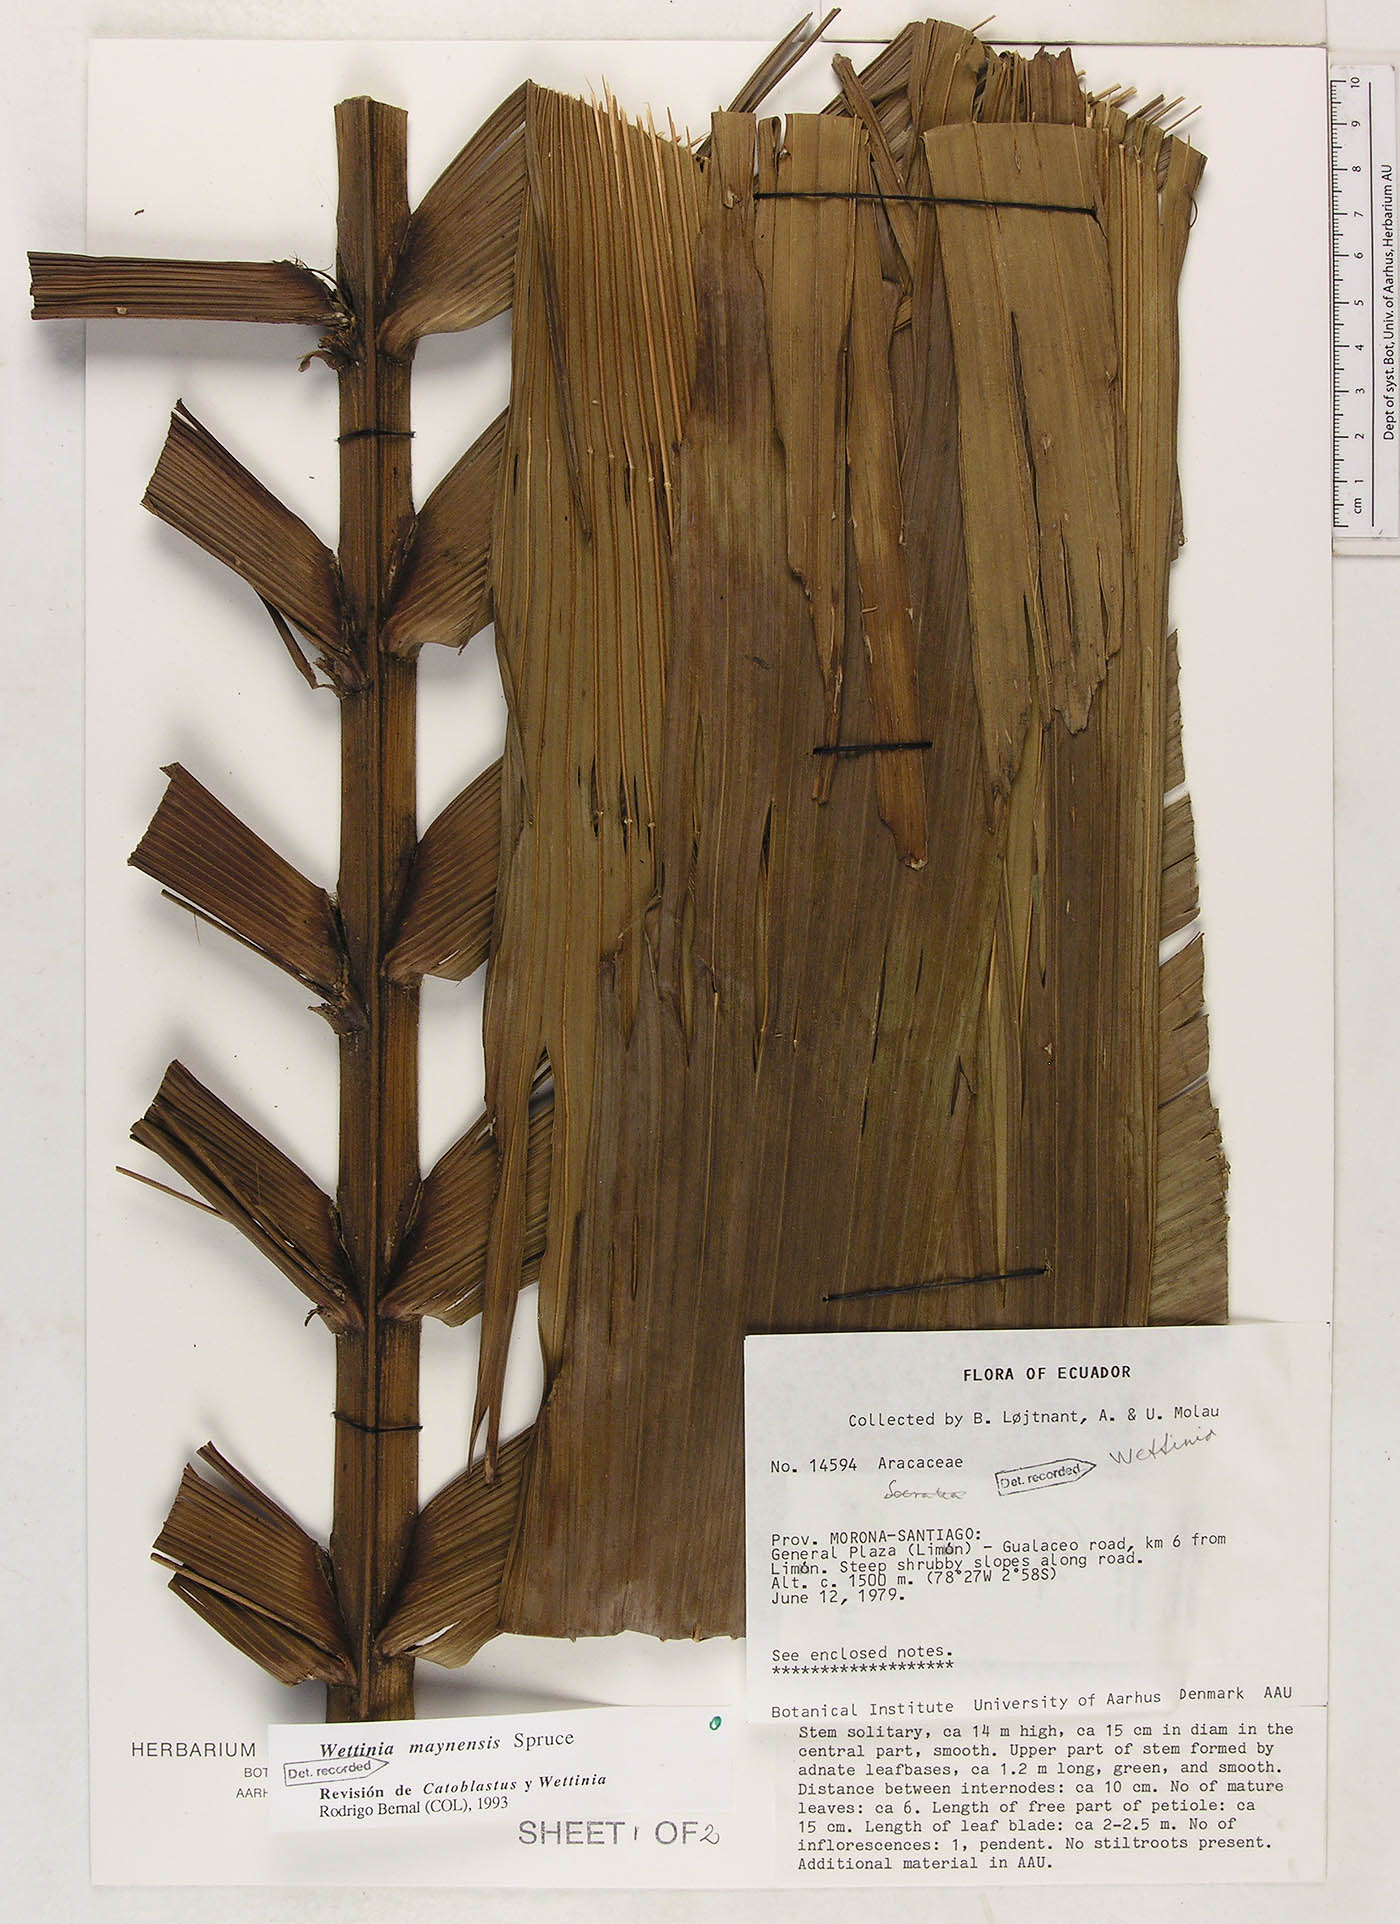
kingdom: Plantae
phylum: Tracheophyta
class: Liliopsida
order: Arecales
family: Arecaceae
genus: Wettinia
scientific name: Wettinia maynensis
